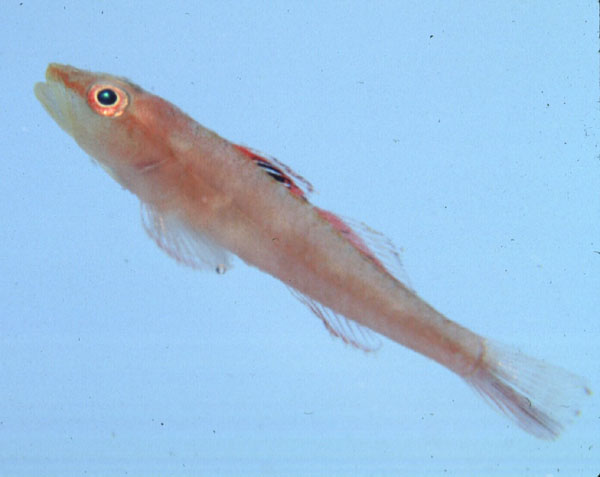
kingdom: Animalia
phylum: Chordata
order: Perciformes
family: Gobiidae
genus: Pleurosicya
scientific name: Pleurosicya mossambica
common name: Common ghost goby
